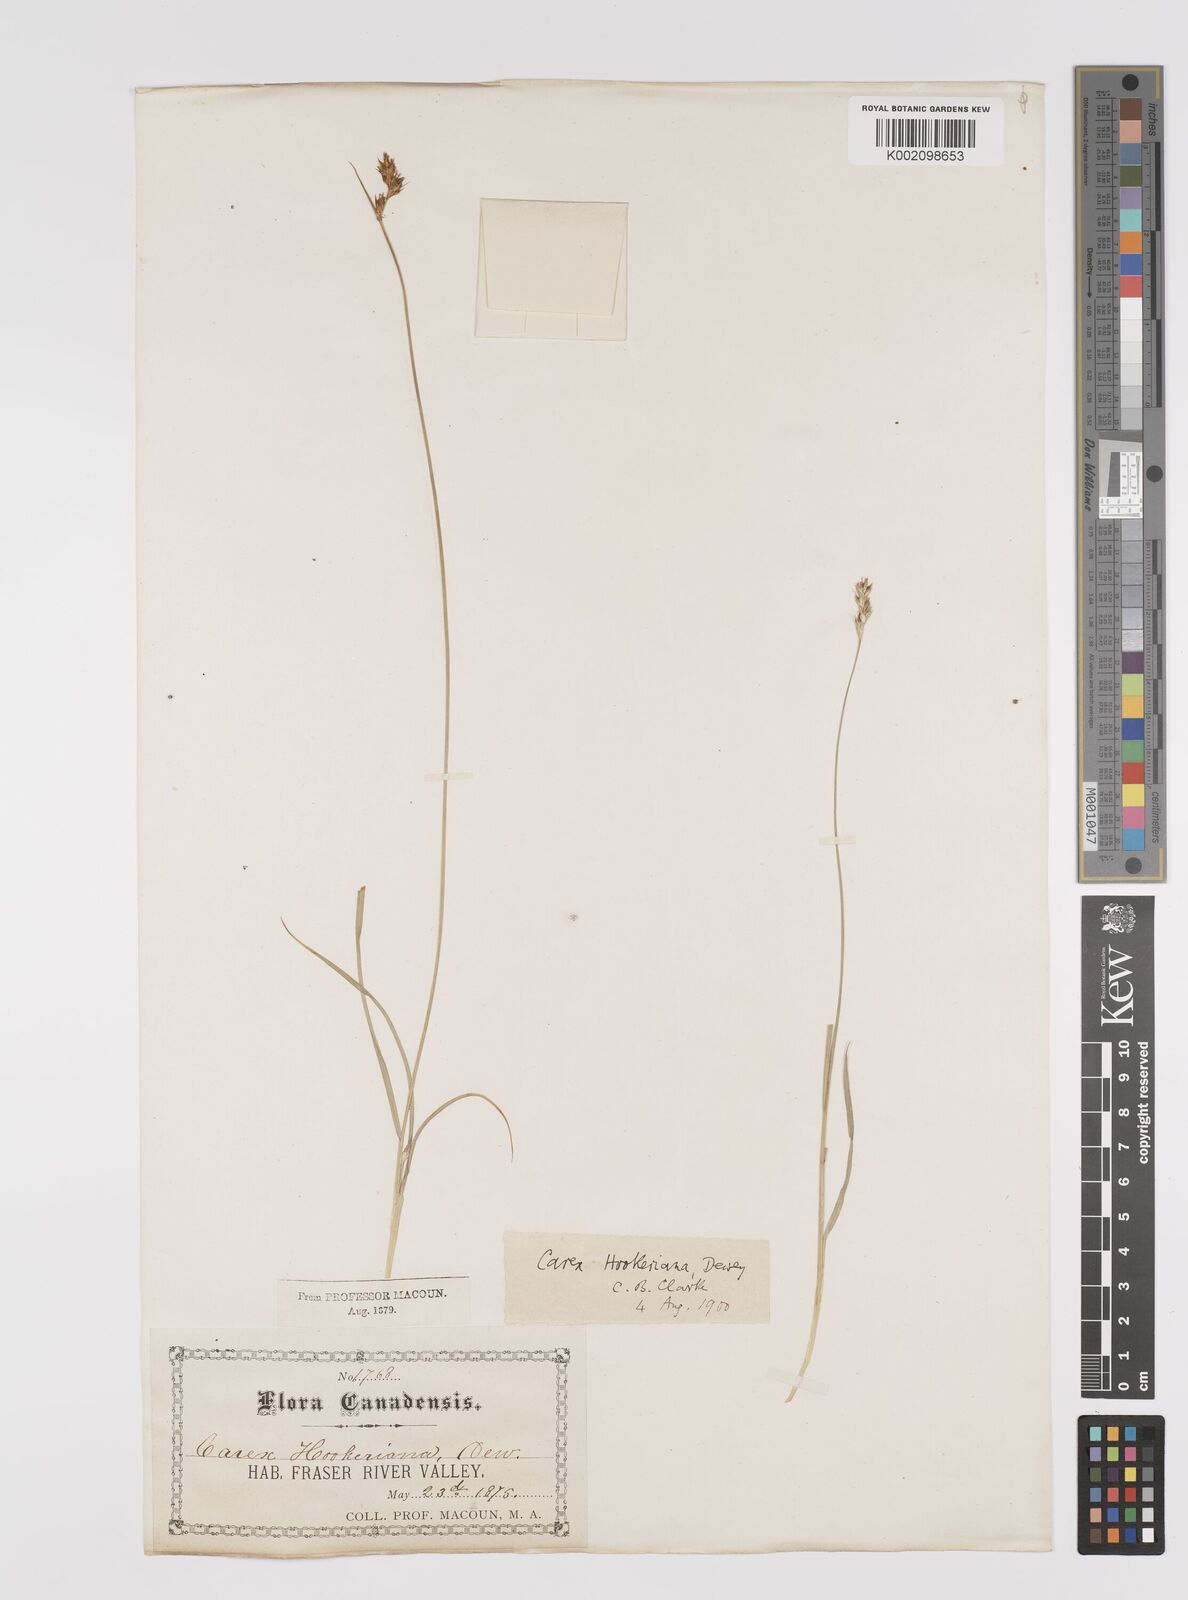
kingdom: Plantae
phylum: Tracheophyta
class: Liliopsida
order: Poales
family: Cyperaceae
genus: Carex
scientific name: Carex hookeriana
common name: Hooker's sedge
